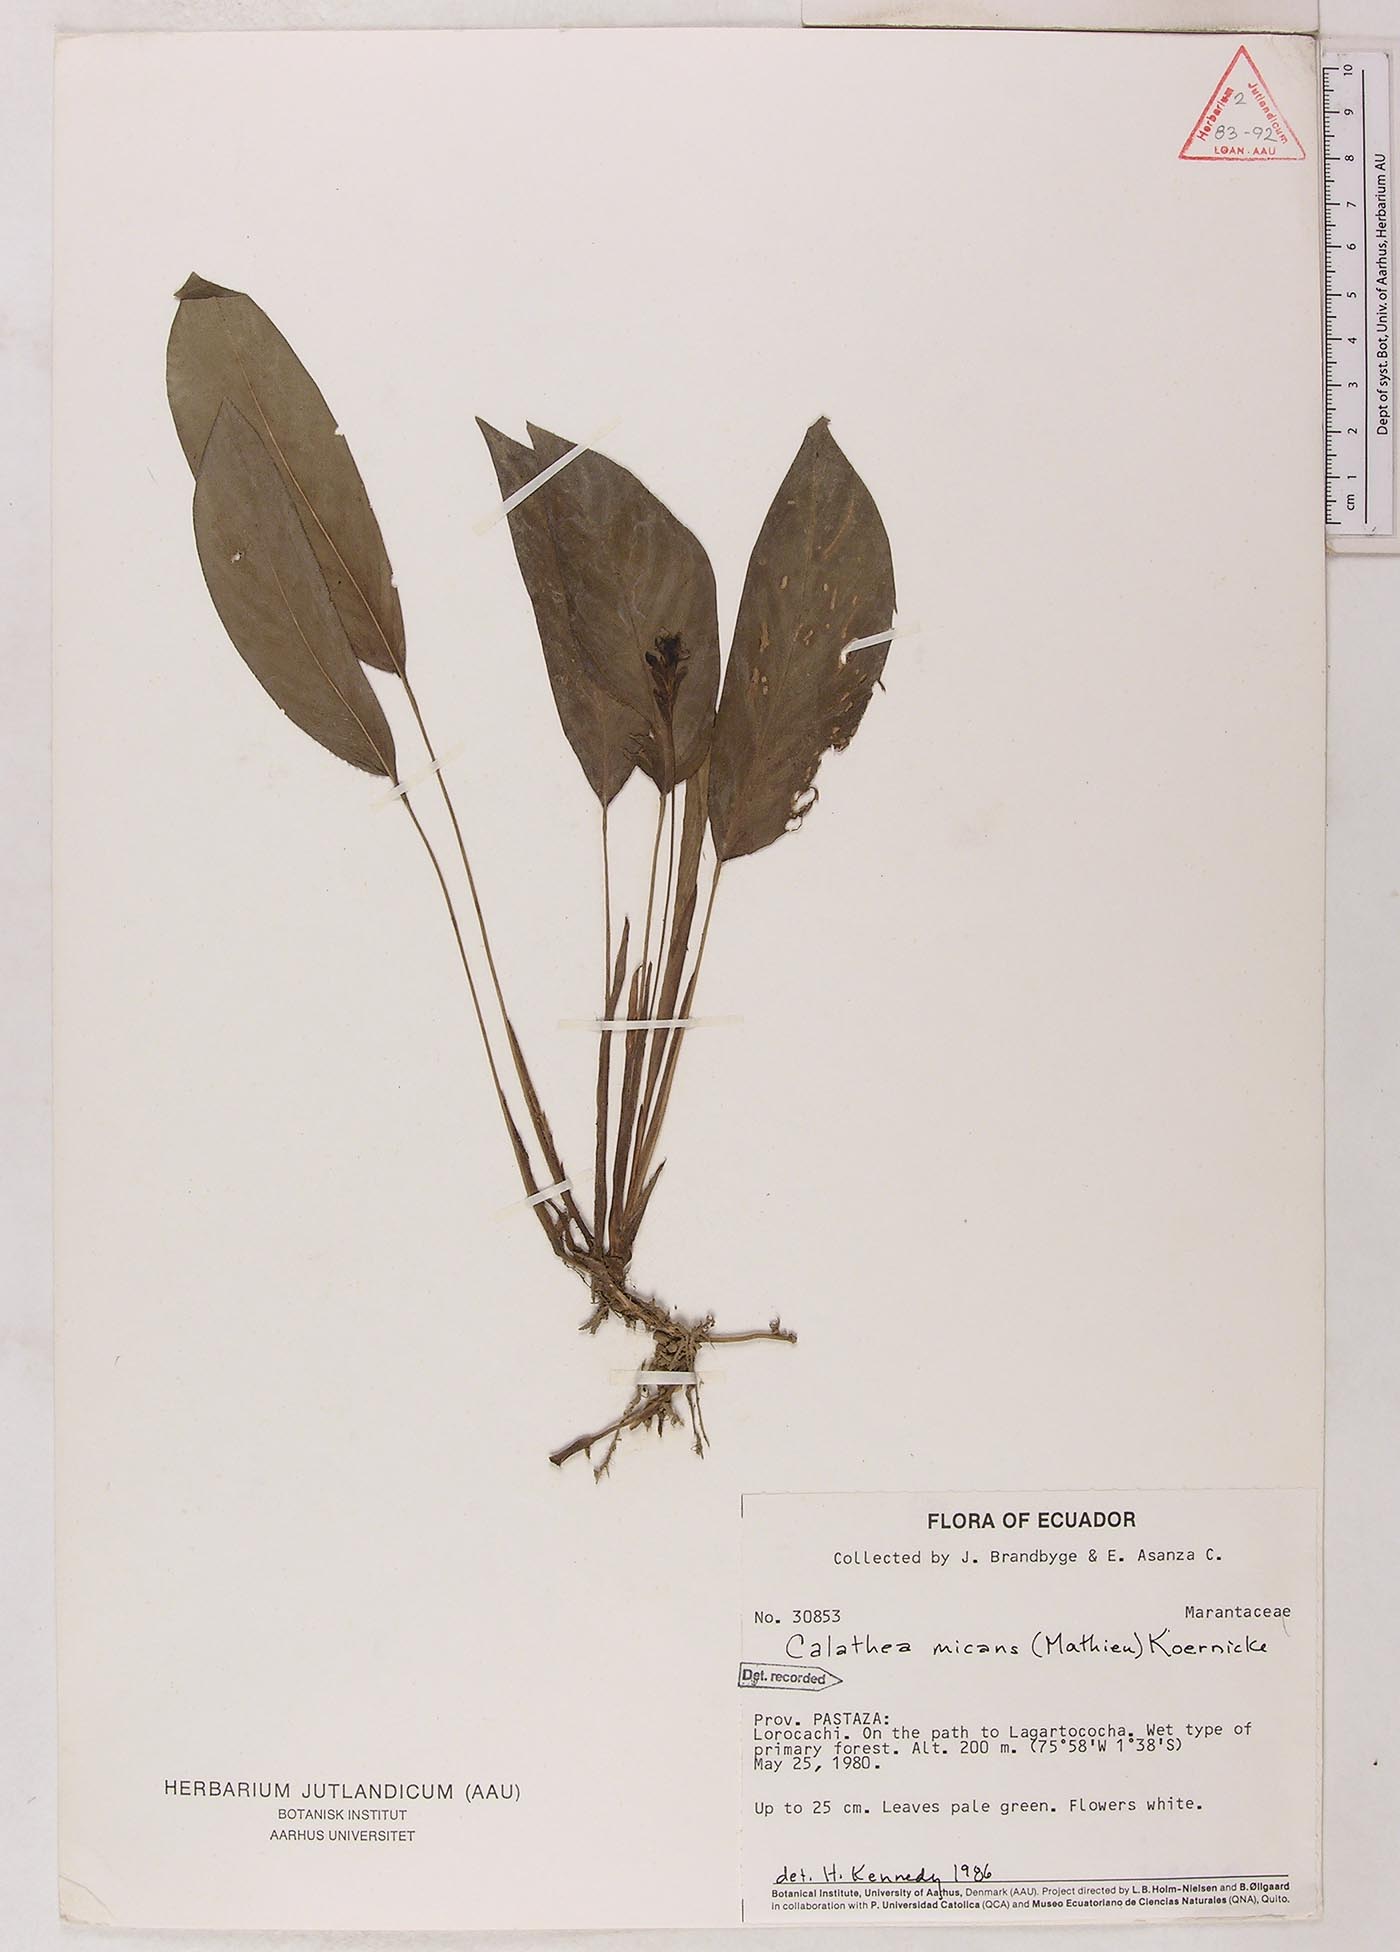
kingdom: Plantae
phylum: Tracheophyta
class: Liliopsida
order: Zingiberales
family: Marantaceae
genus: Goeppertia
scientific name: Goeppertia micans
